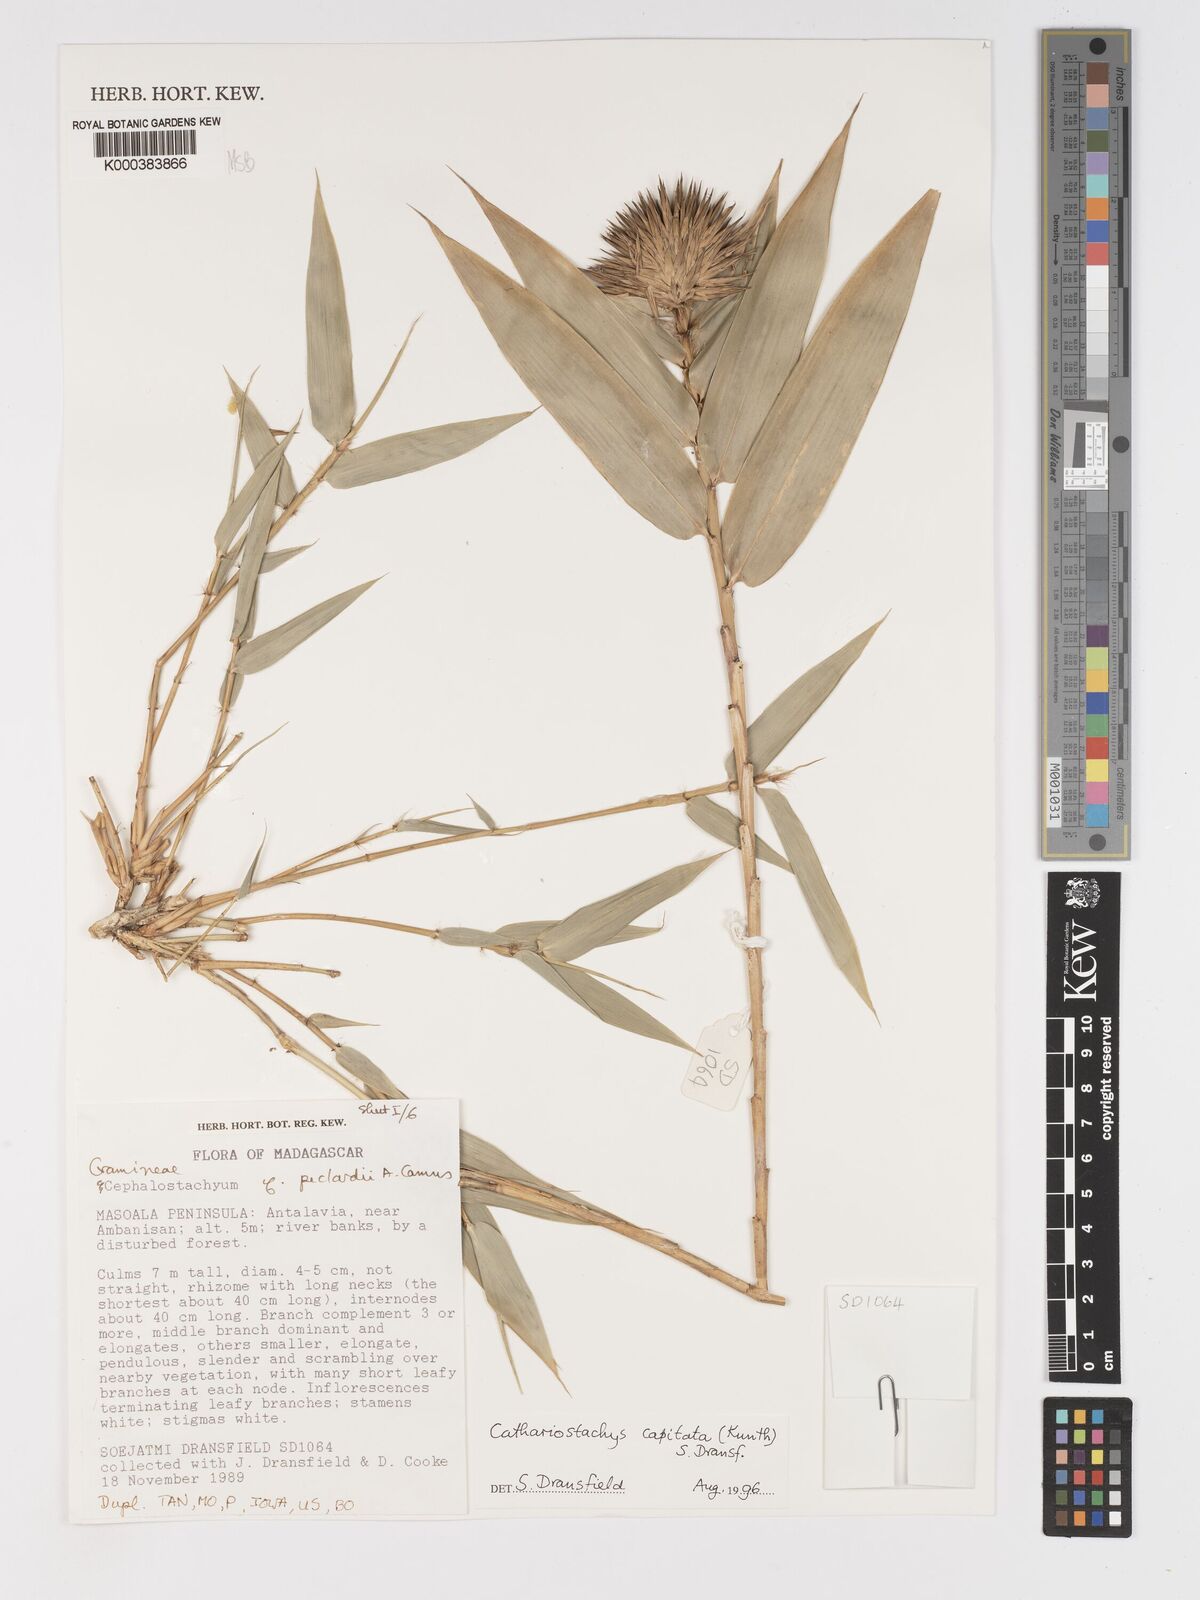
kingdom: Plantae
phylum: Tracheophyta
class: Liliopsida
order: Poales
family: Poaceae
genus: Cathariostachys
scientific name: Cathariostachys capitata
